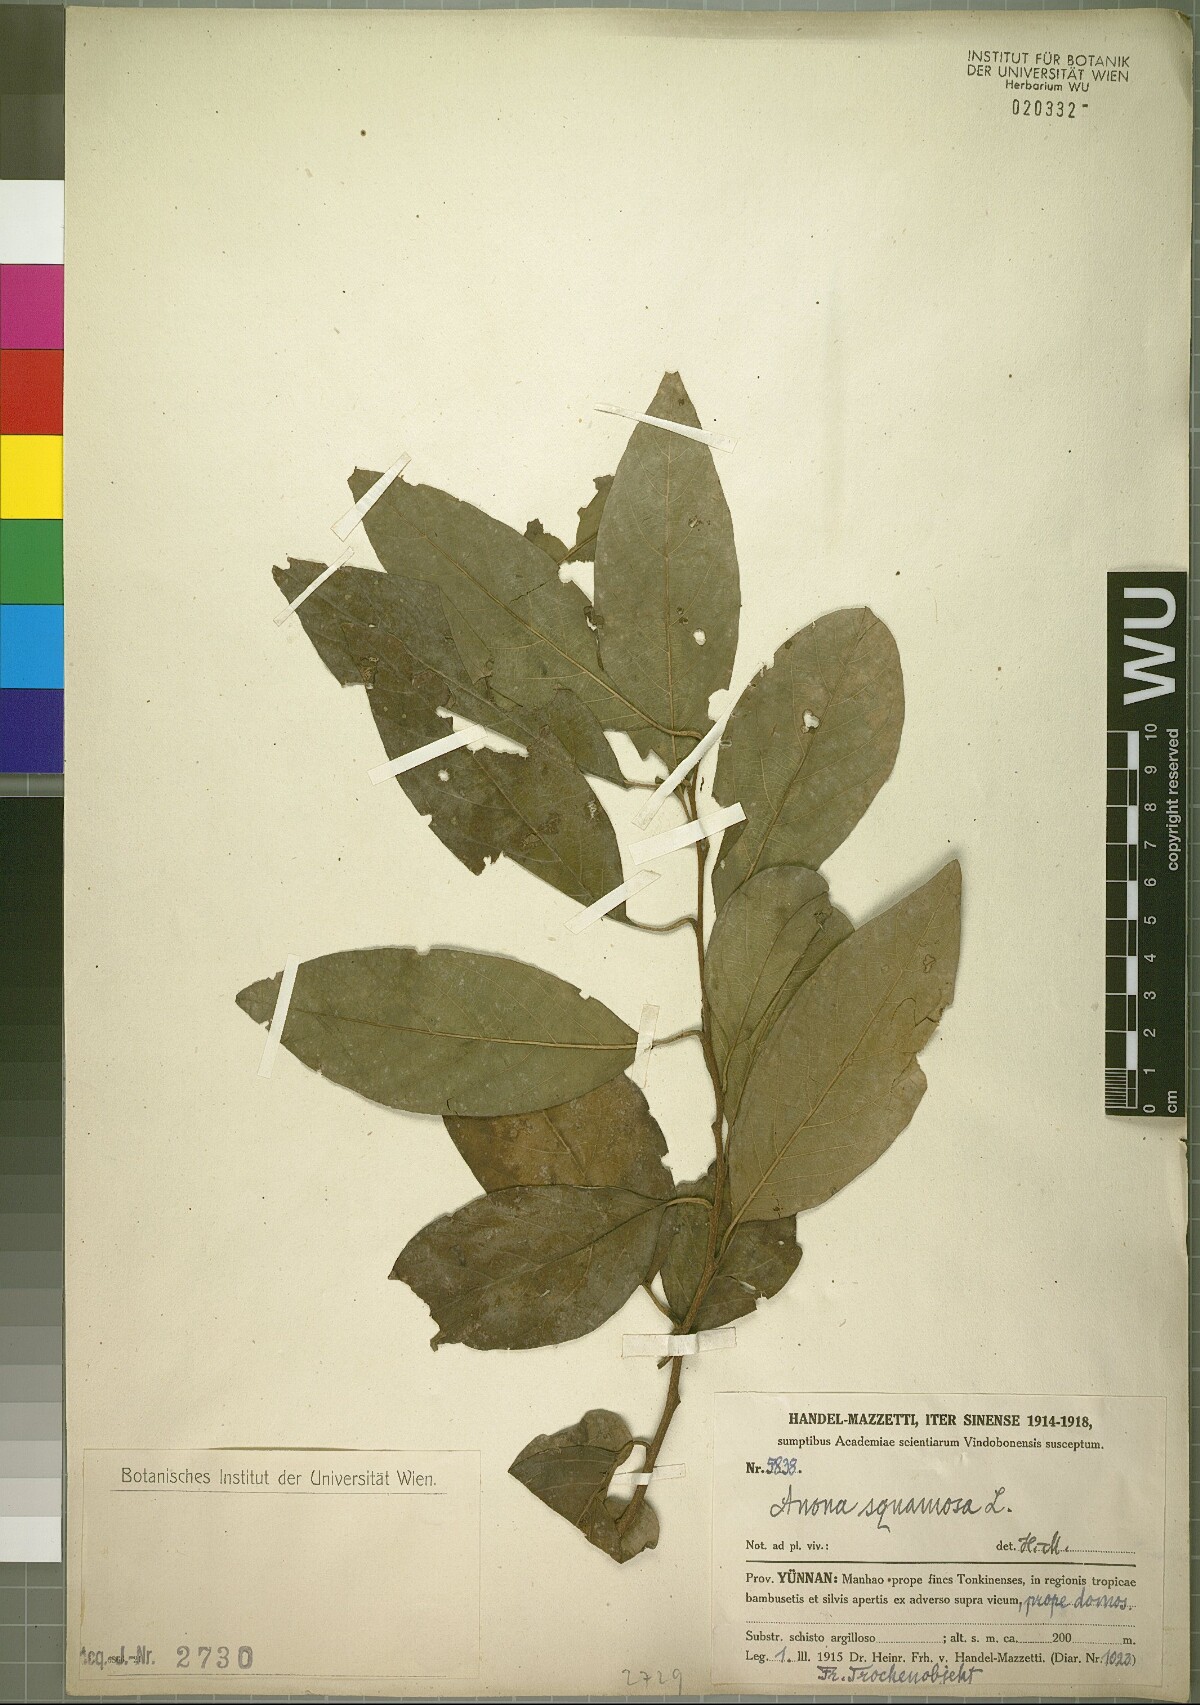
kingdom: Plantae
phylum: Tracheophyta
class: Magnoliopsida
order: Magnoliales
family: Annonaceae
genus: Annona
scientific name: Annona squamosa
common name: Custard-apple
